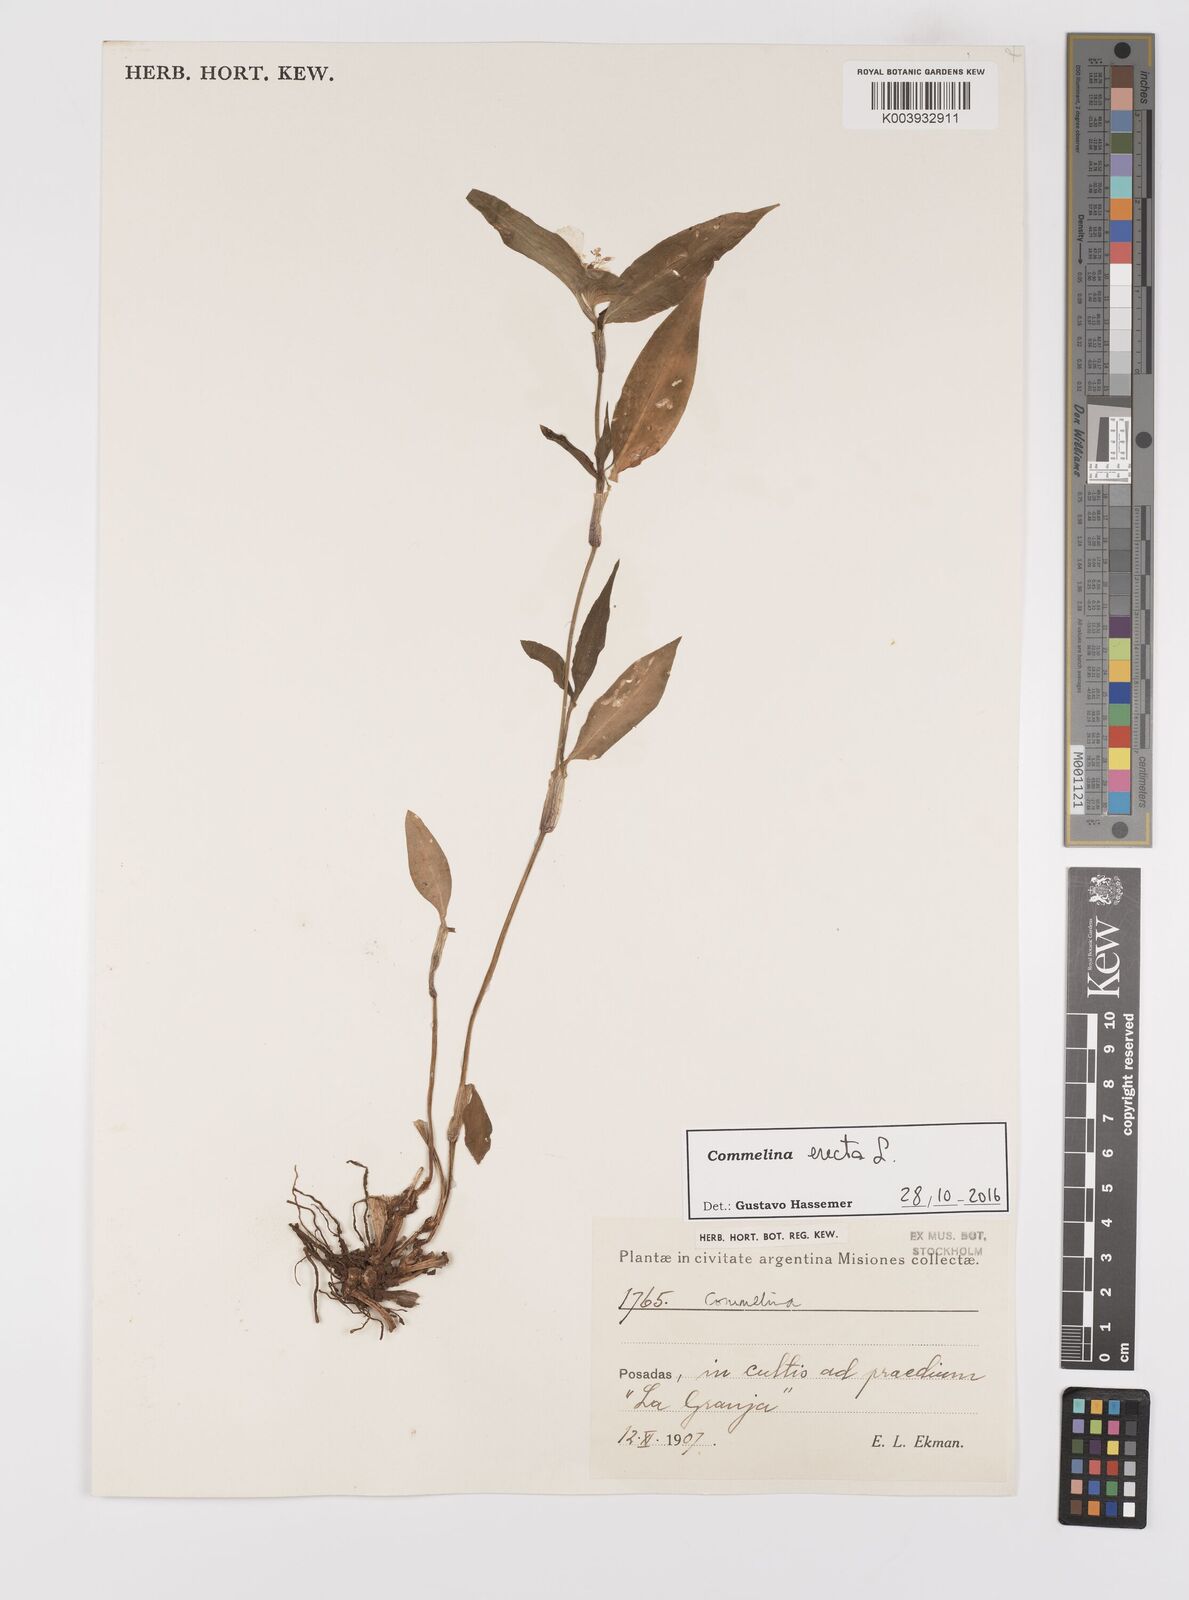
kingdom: Plantae
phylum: Tracheophyta
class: Liliopsida
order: Commelinales
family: Commelinaceae
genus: Commelina
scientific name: Commelina erecta
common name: Blousel blommetjie
